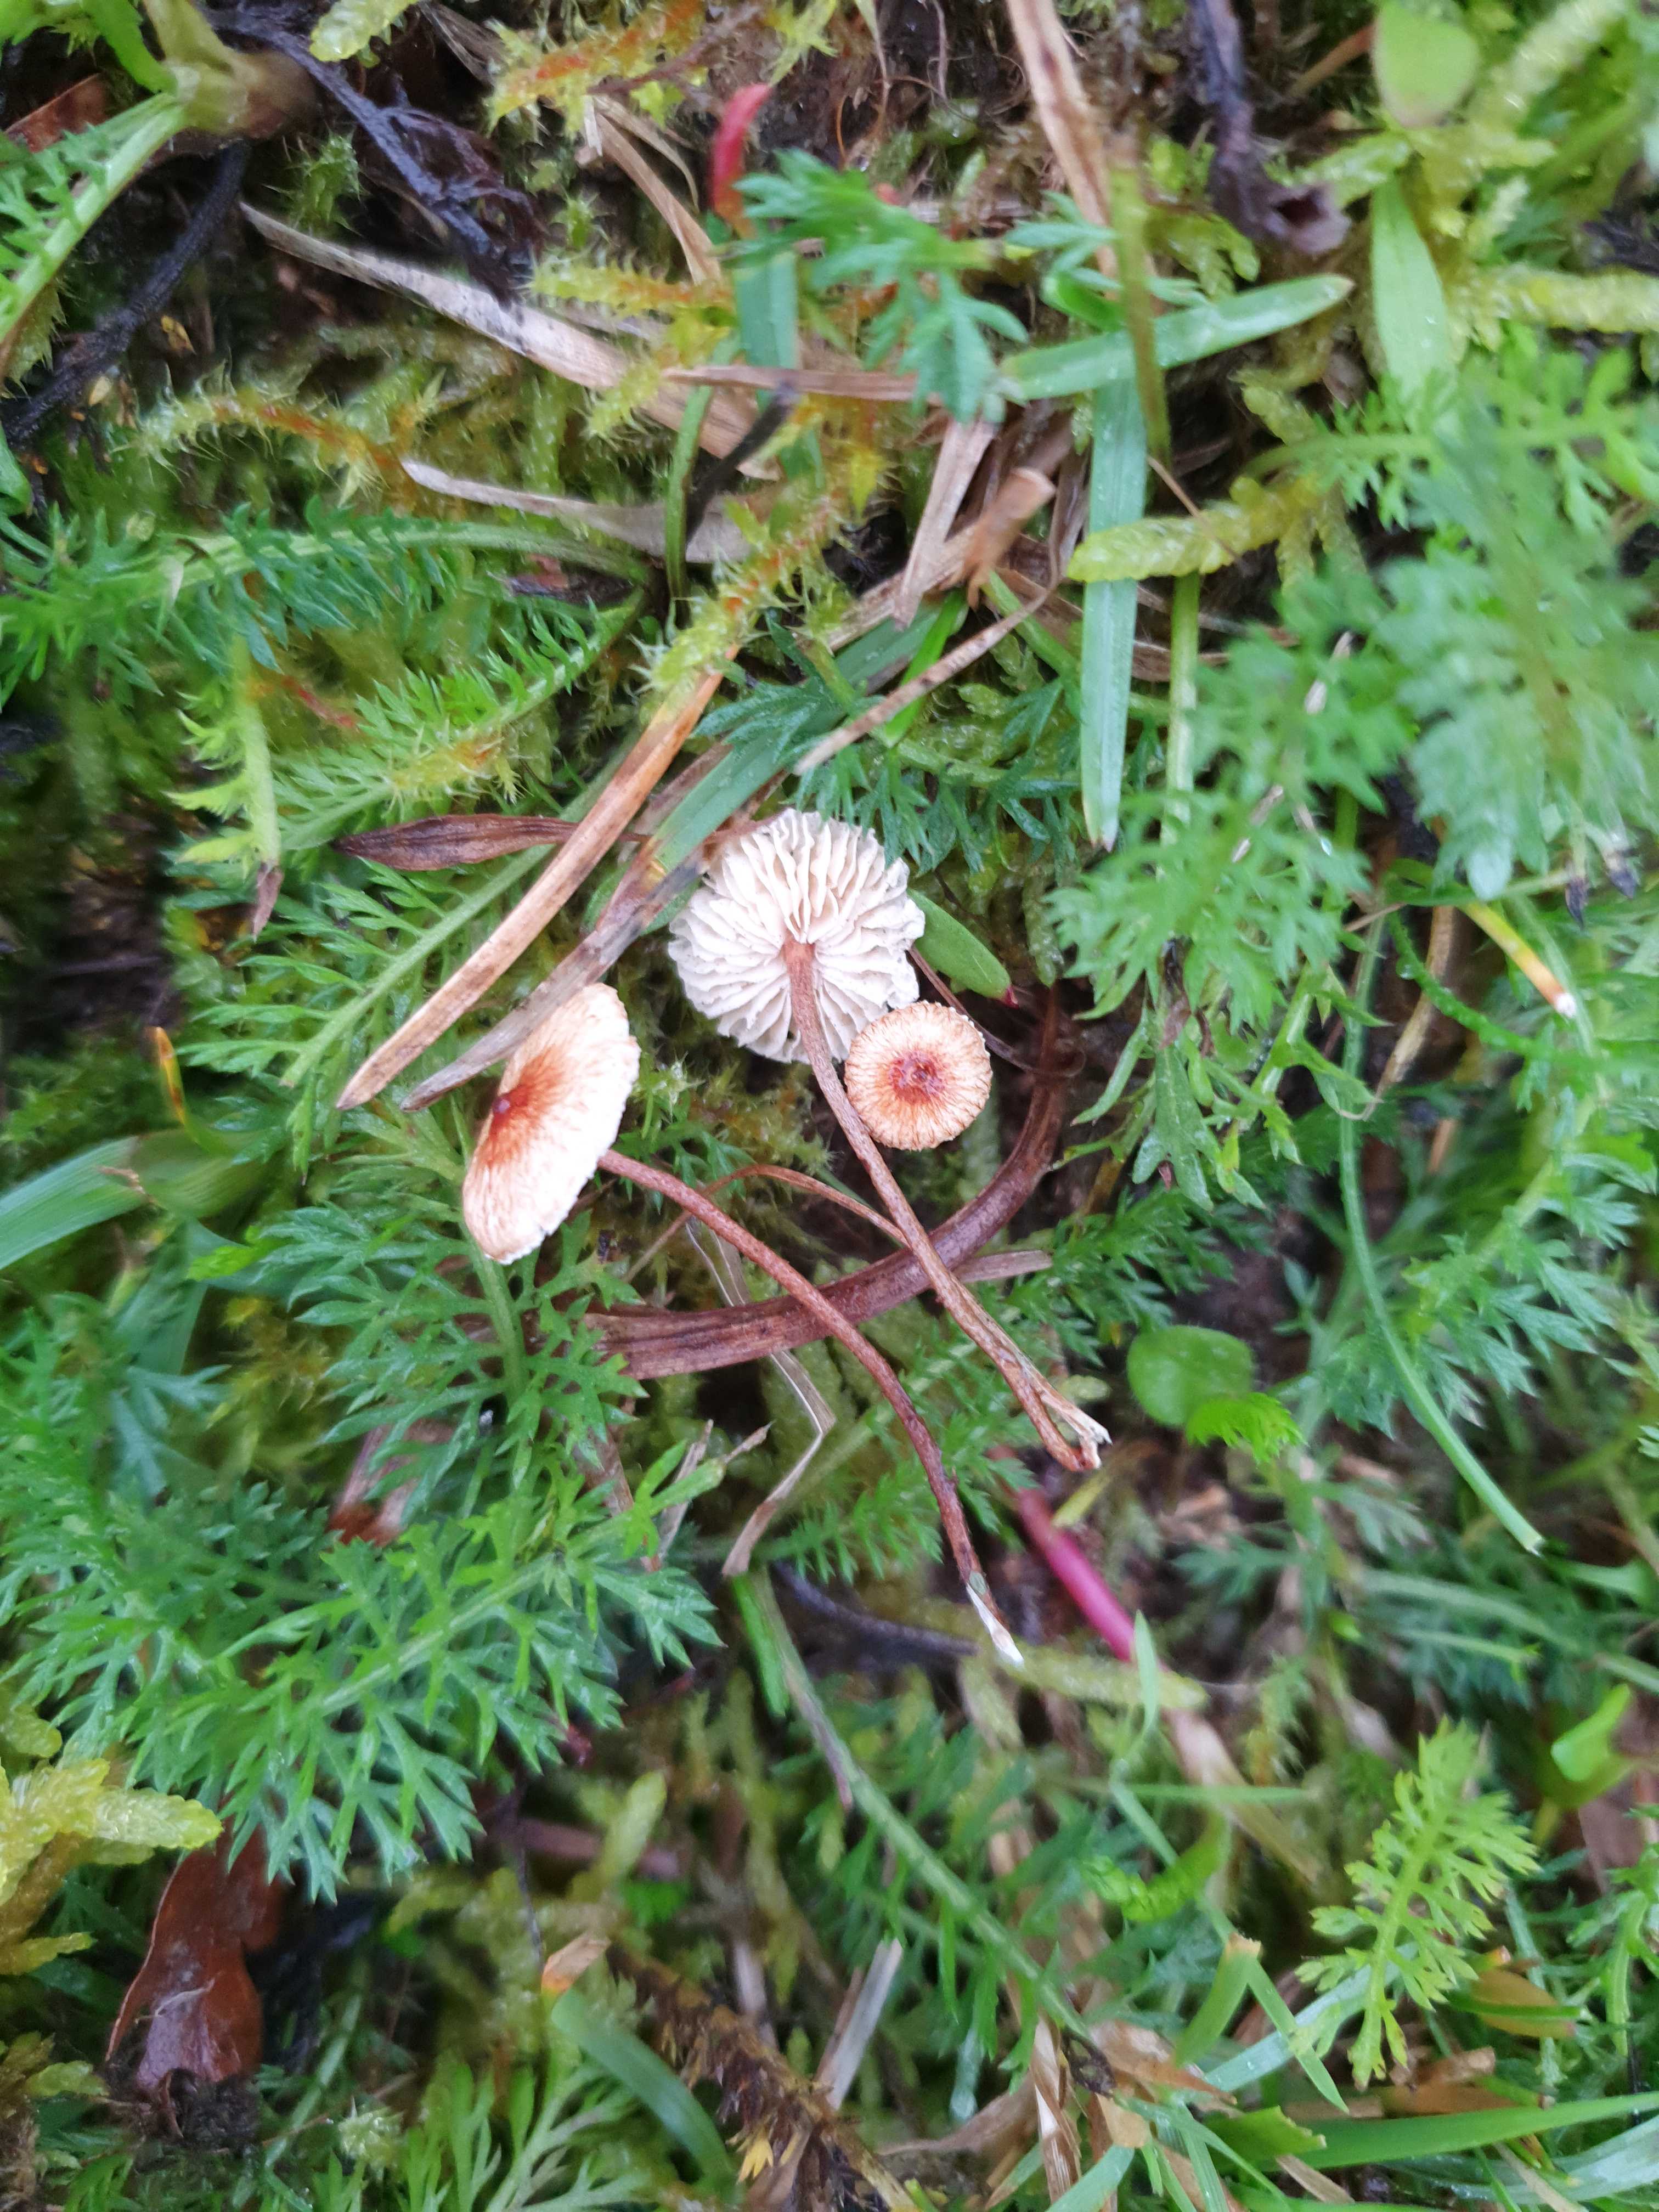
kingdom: Fungi
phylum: Basidiomycota
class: Agaricomycetes
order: Agaricales
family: Marasmiaceae
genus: Crinipellis
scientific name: Crinipellis scabella
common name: børstefod
